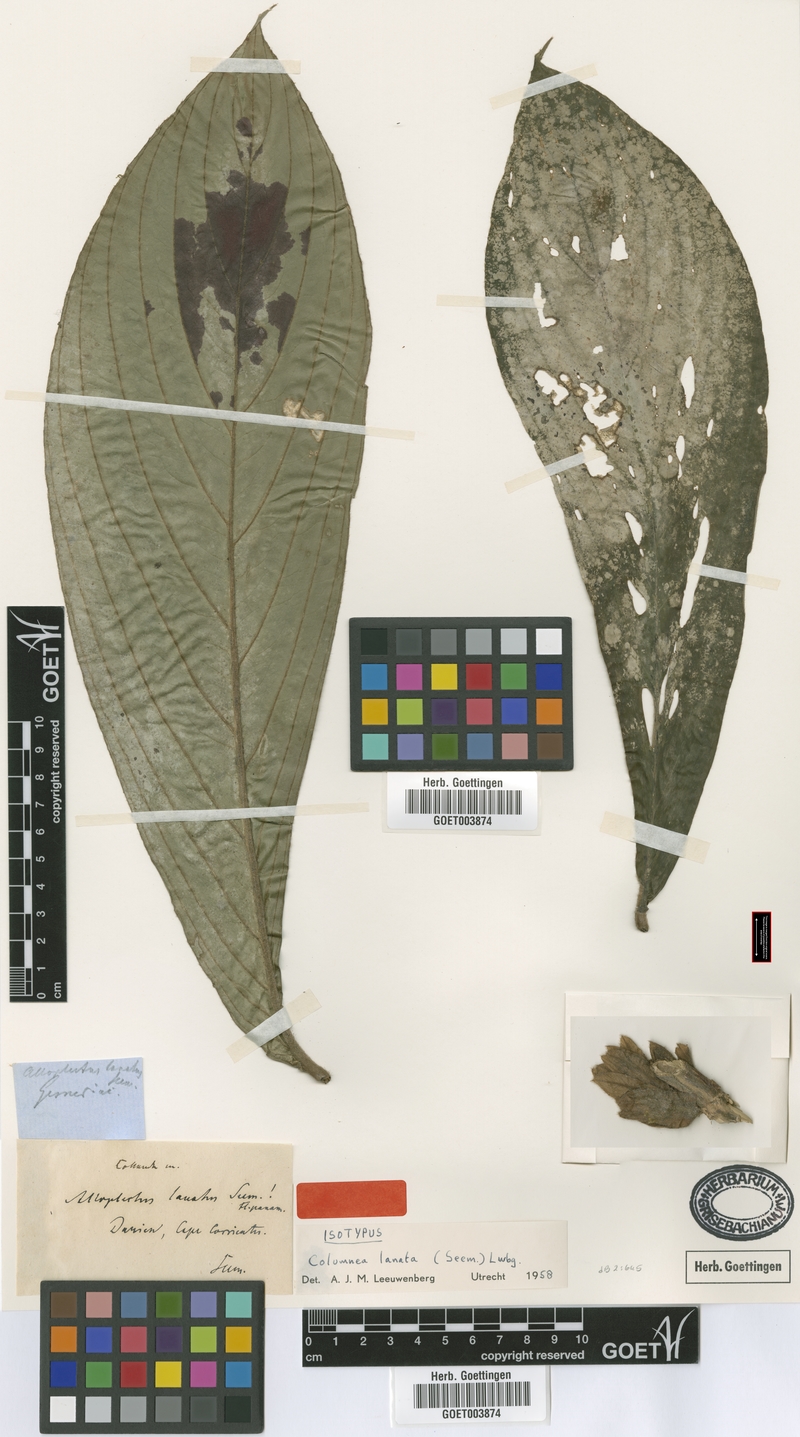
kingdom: Plantae
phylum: Tracheophyta
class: Magnoliopsida
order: Lamiales
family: Gesneriaceae
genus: Columnea
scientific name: Columnea lanata
